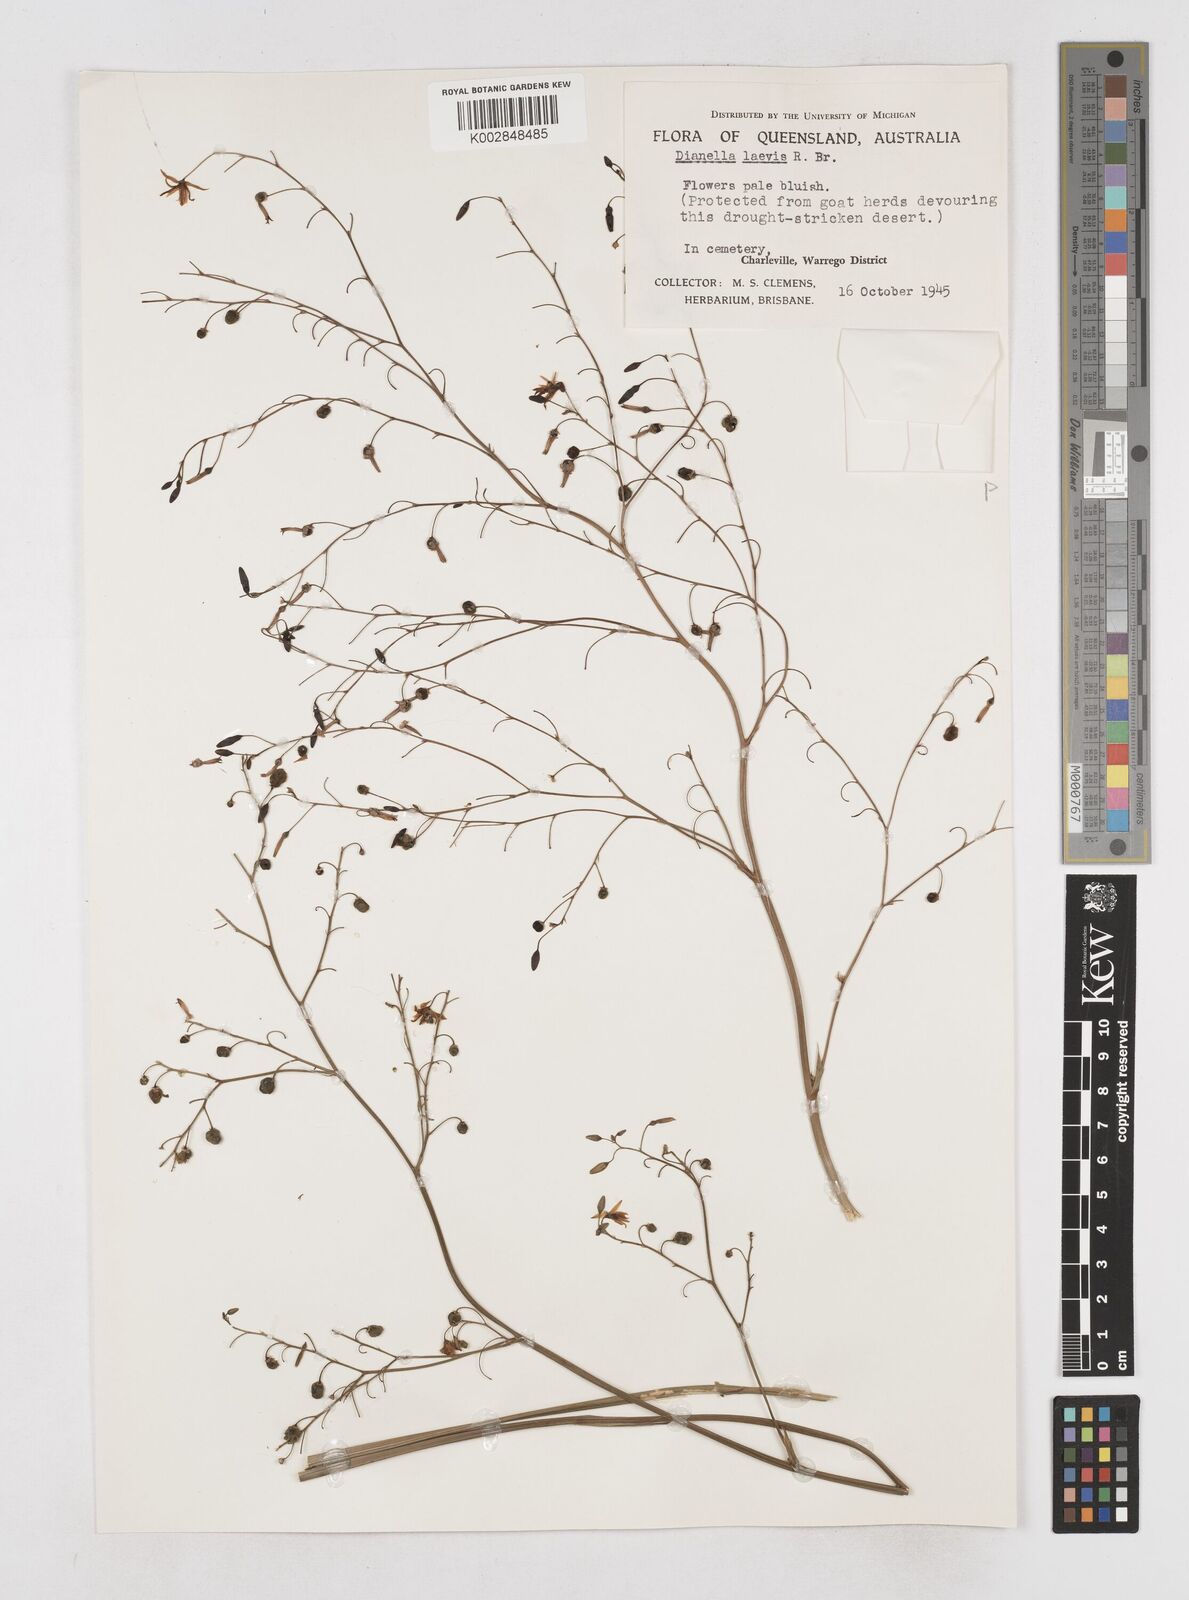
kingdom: Plantae
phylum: Tracheophyta
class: Liliopsida
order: Asparagales
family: Asphodelaceae
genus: Dianella
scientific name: Dianella longifolia
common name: Blue flax-lily
